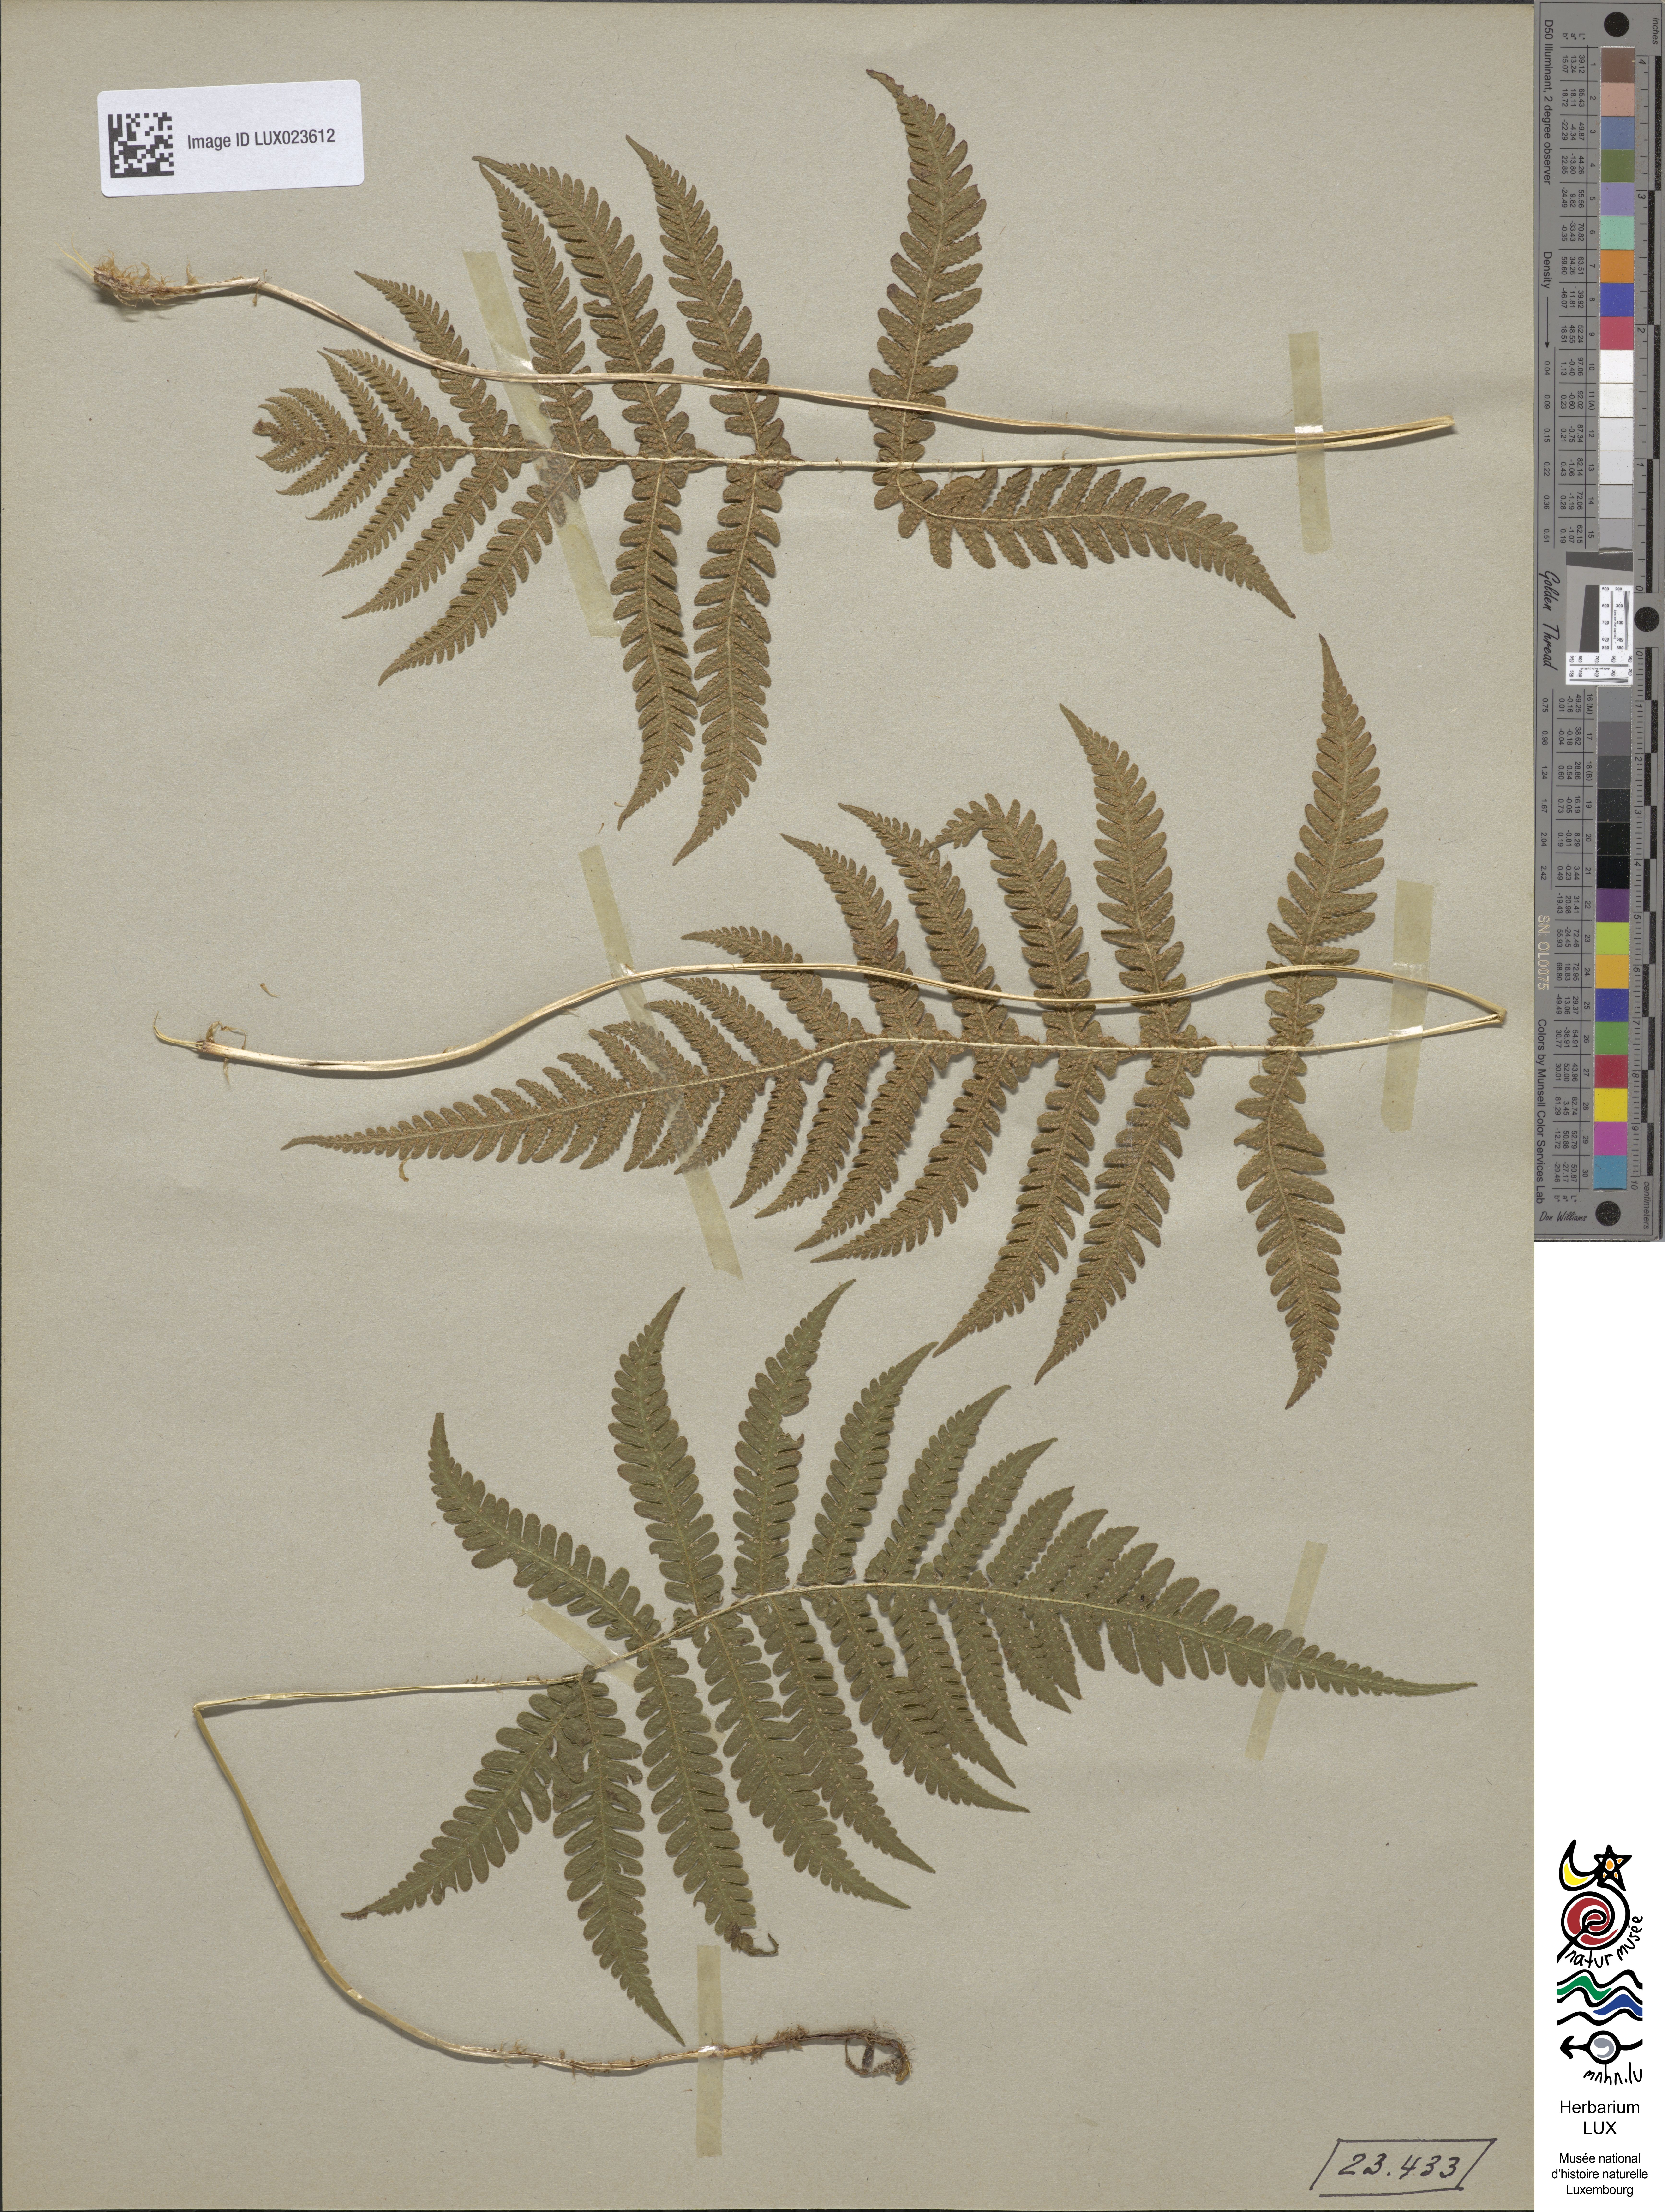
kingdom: Plantae
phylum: Tracheophyta
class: Polypodiopsida
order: Polypodiales
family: Thelypteridaceae
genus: Phegopteris
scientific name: Phegopteris connectilis
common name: Beech fern
